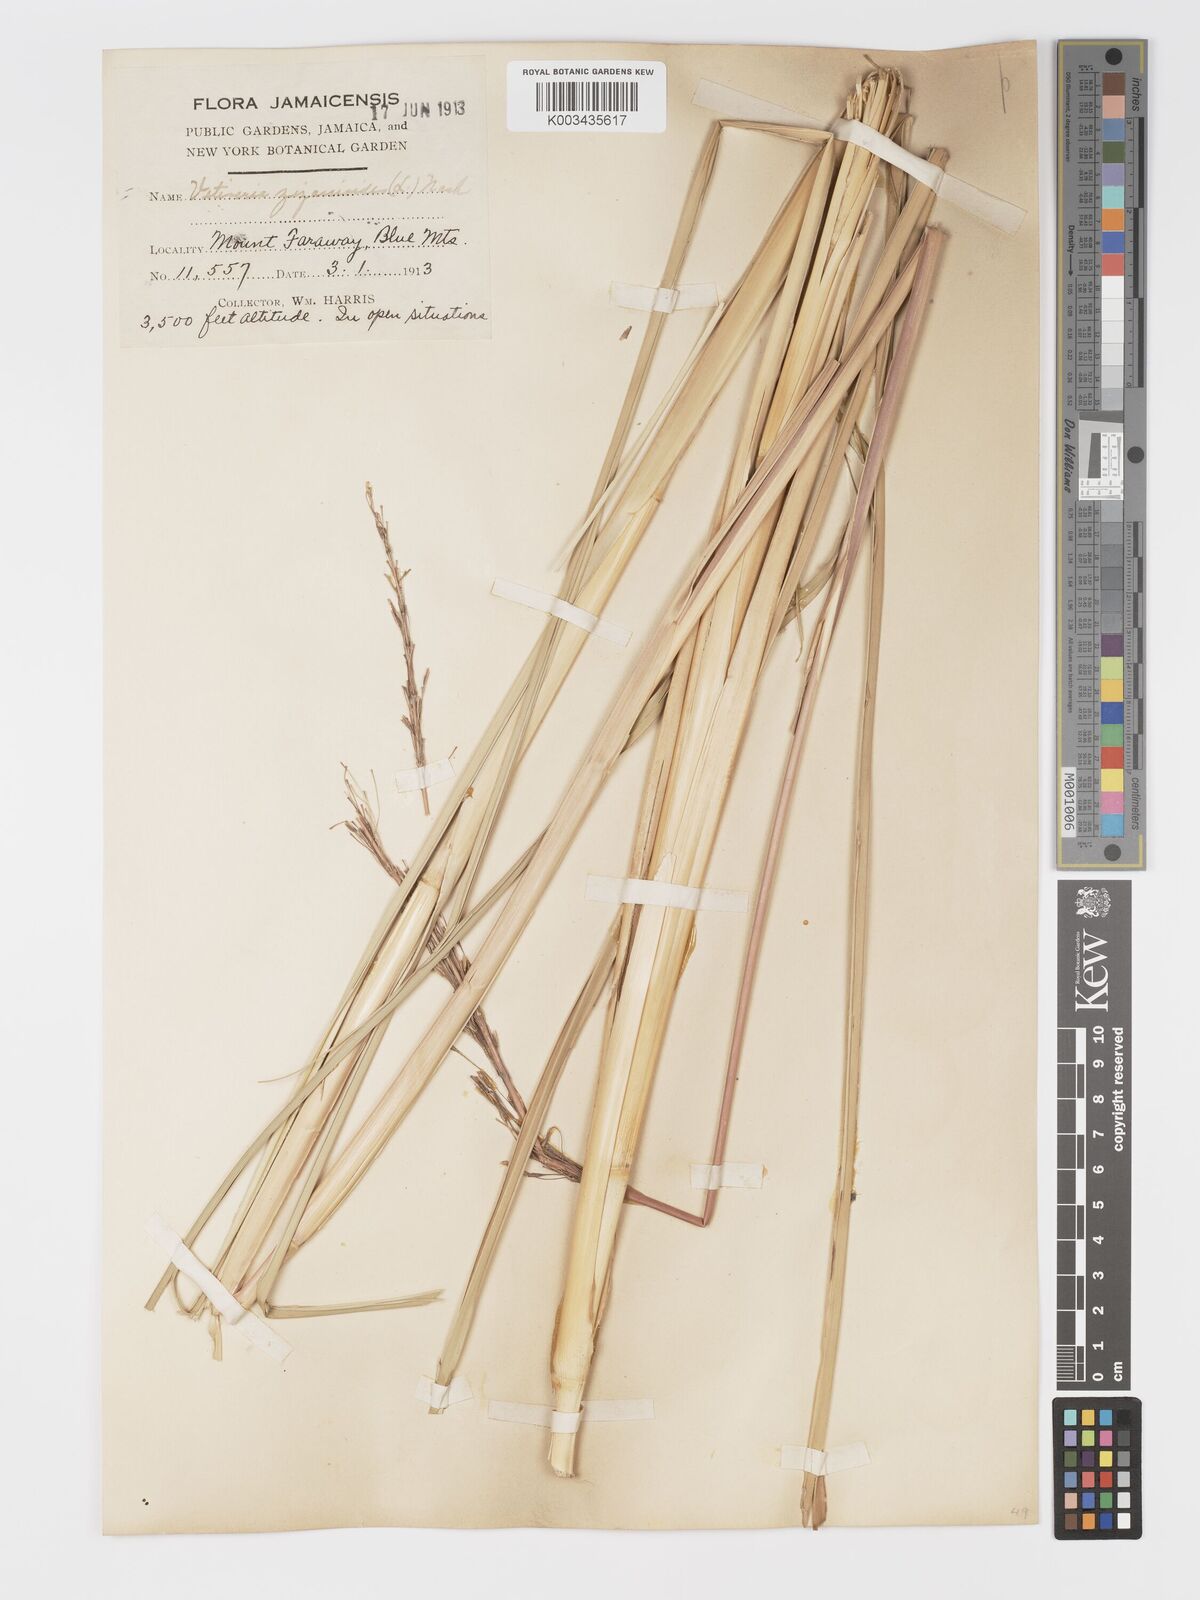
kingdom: Plantae
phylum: Tracheophyta
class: Liliopsida
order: Poales
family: Poaceae
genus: Chrysopogon
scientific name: Chrysopogon zizanioides
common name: False beardgrass
